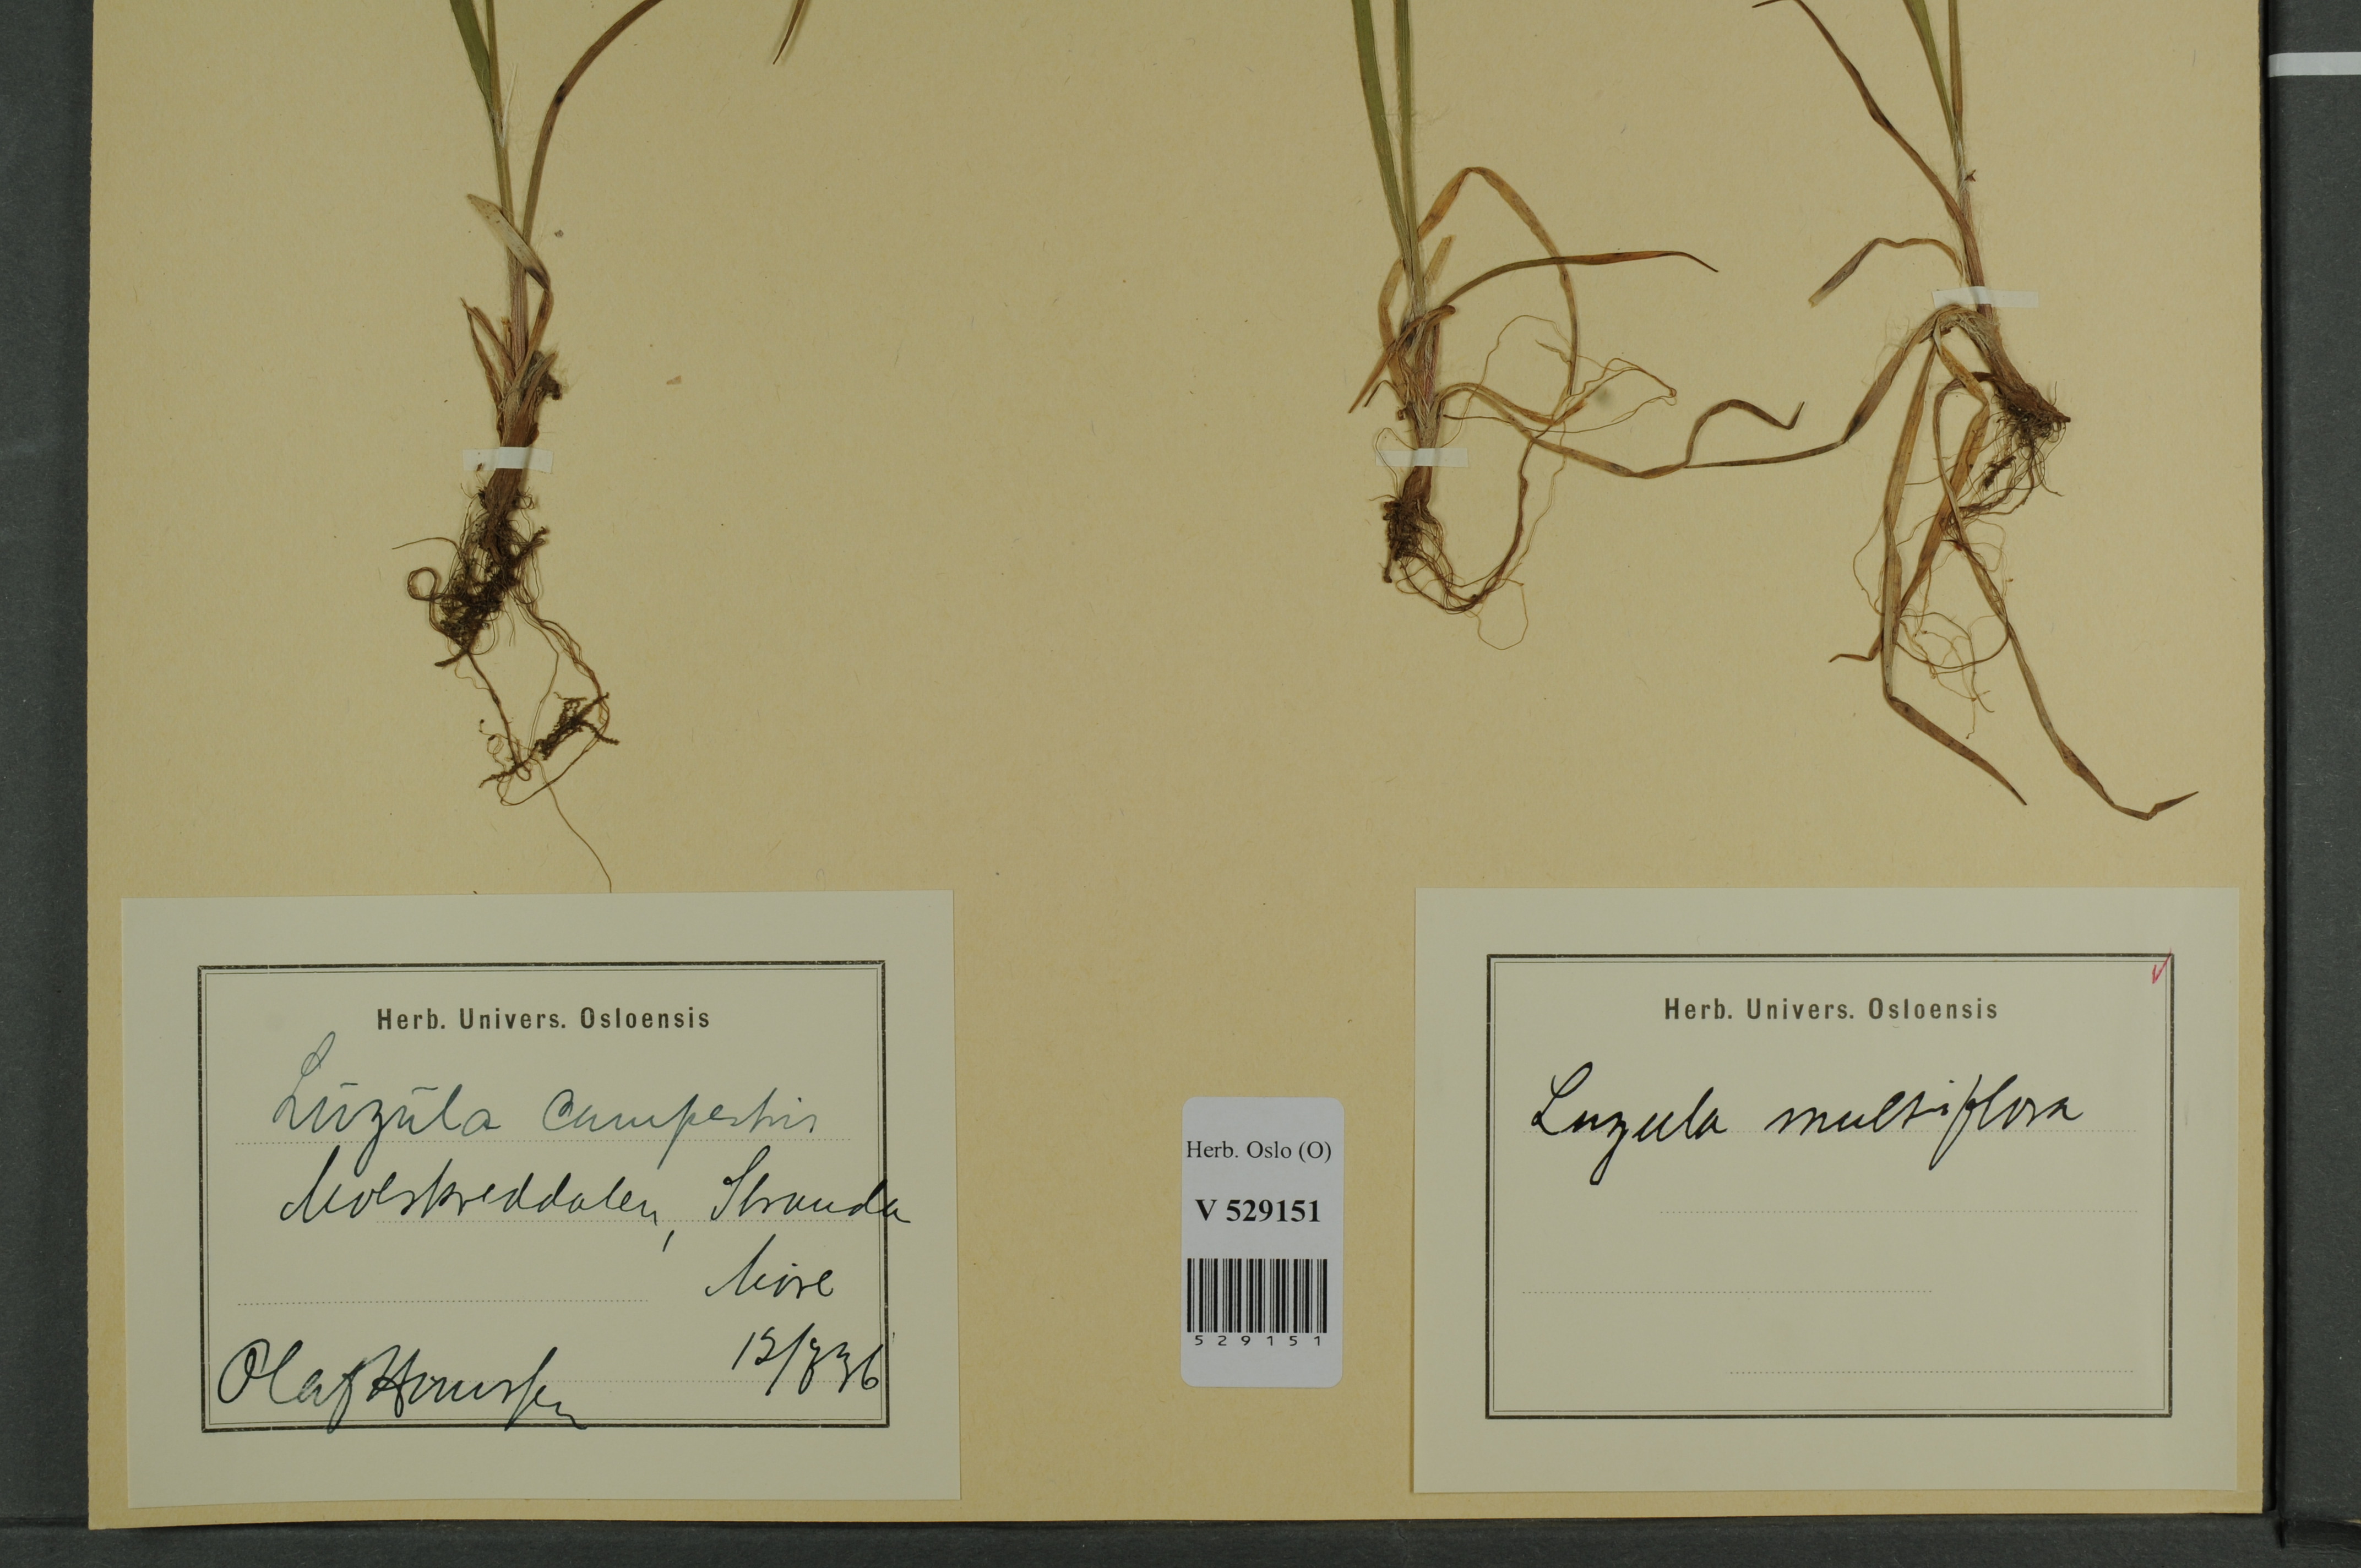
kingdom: Plantae
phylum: Tracheophyta
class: Liliopsida
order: Poales
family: Juncaceae
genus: Luzula
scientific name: Luzula multiflora
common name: Heath wood-rush
